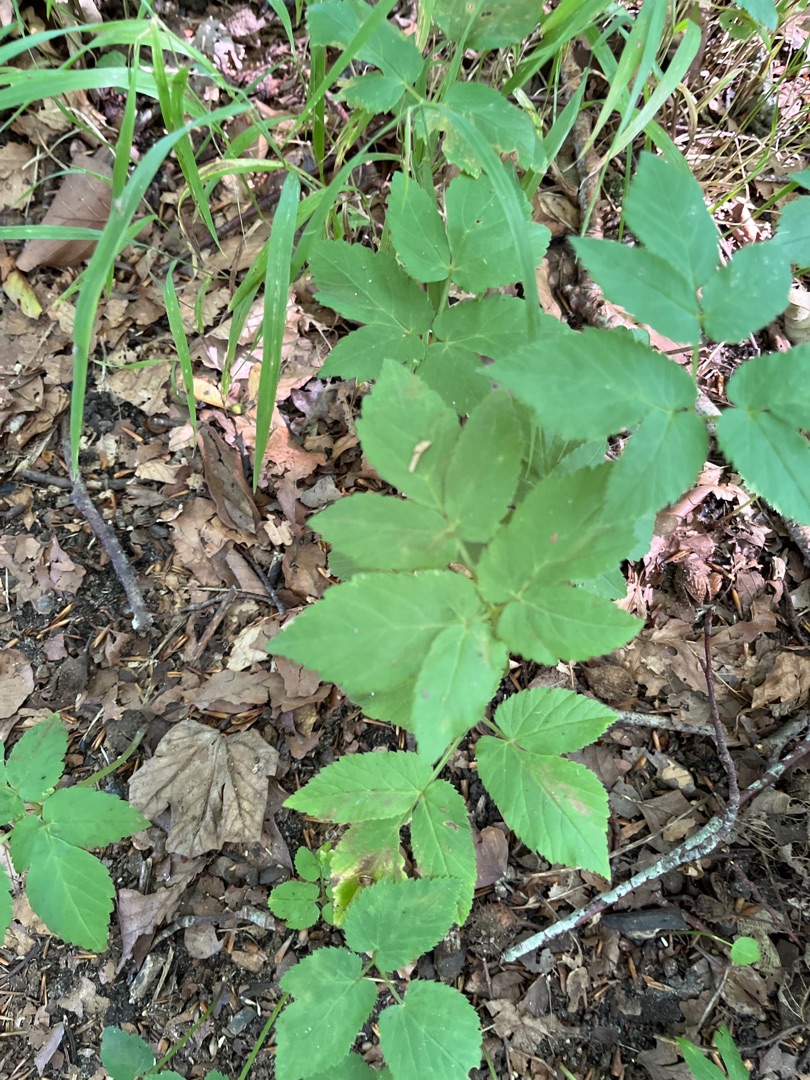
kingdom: Plantae
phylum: Tracheophyta
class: Magnoliopsida
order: Apiales
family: Apiaceae
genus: Aegopodium
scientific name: Aegopodium podagraria
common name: Skvalderkål
